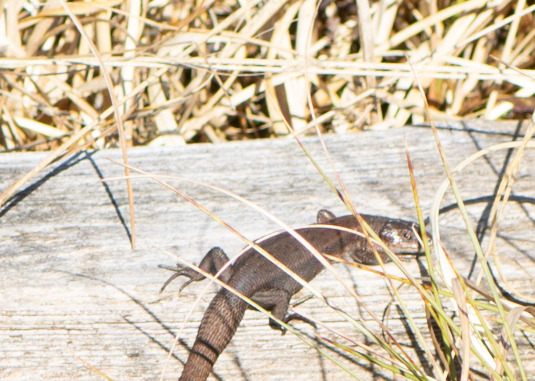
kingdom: Animalia
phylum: Chordata
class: Squamata
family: Lacertidae
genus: Zootoca
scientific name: Zootoca vivipara
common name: Skovfirben
